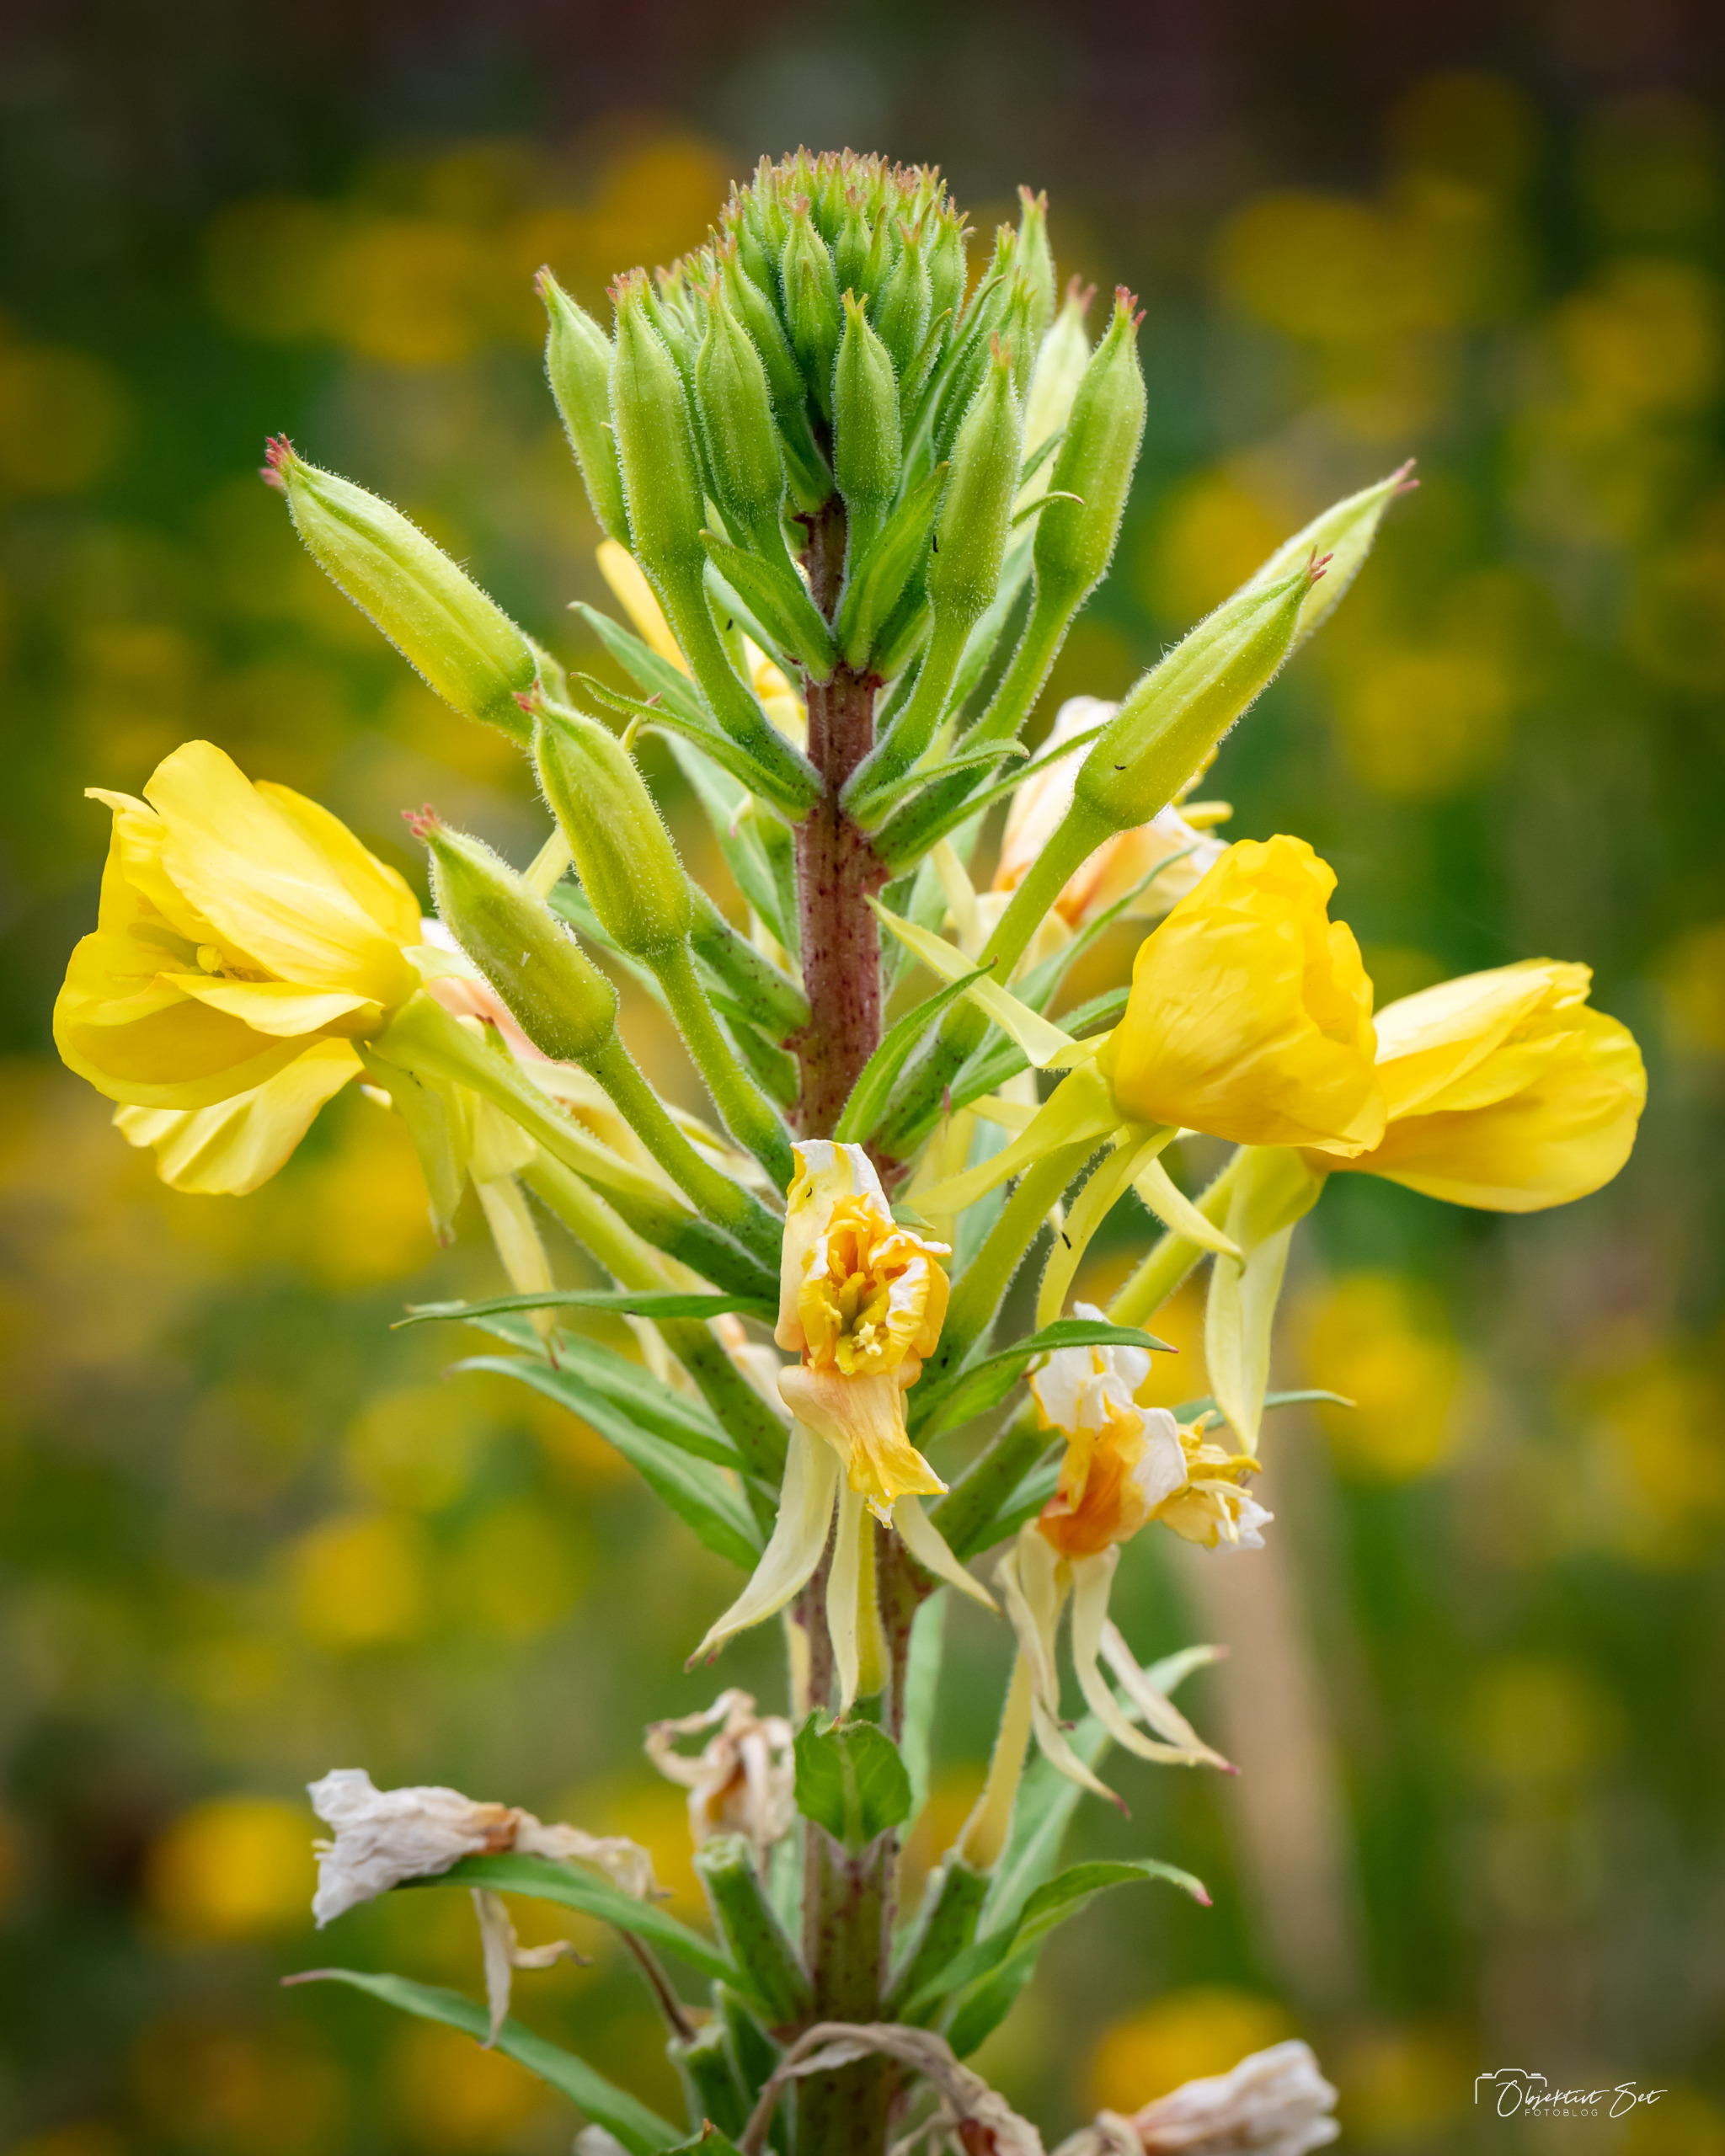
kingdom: Plantae
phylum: Tracheophyta
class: Magnoliopsida
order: Myrtales
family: Onagraceae
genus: Oenothera
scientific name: Oenothera biennis
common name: Rødfrugtet natlys
